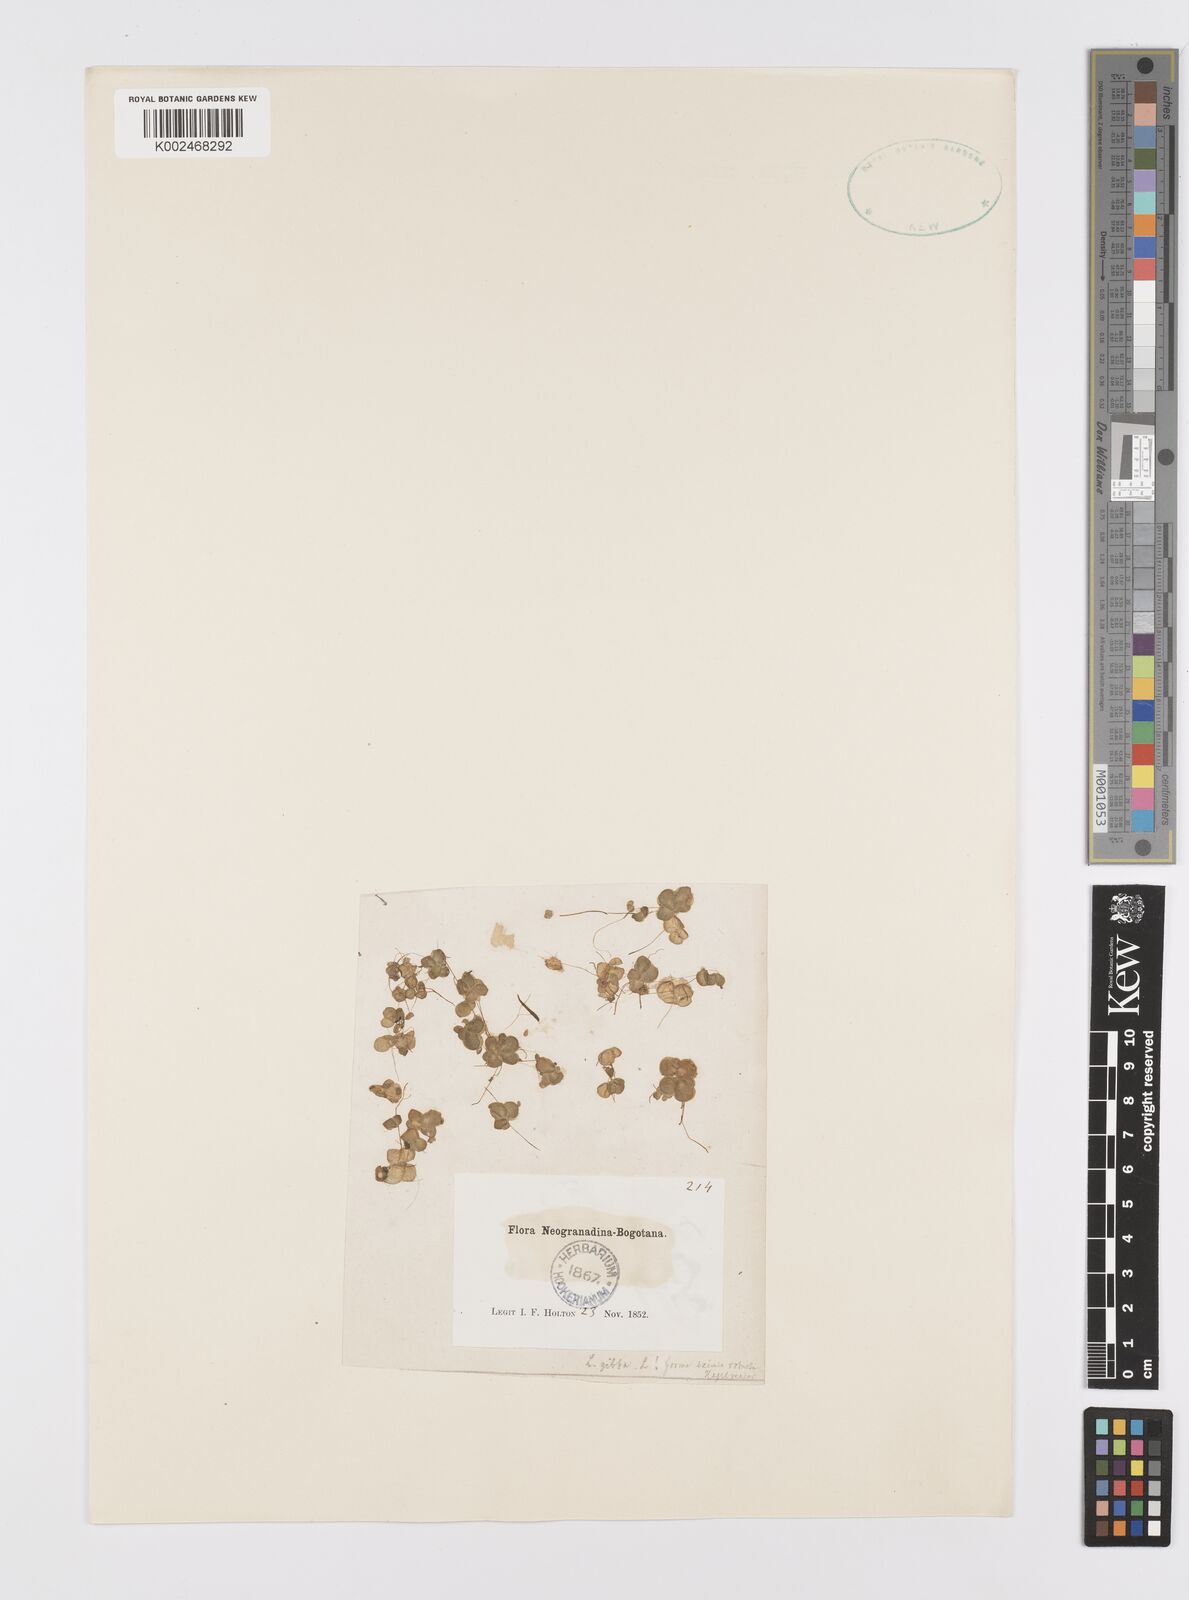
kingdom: Plantae
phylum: Tracheophyta
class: Liliopsida
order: Alismatales
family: Araceae
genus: Lemna
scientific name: Lemna gibba
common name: Fat duckweed
